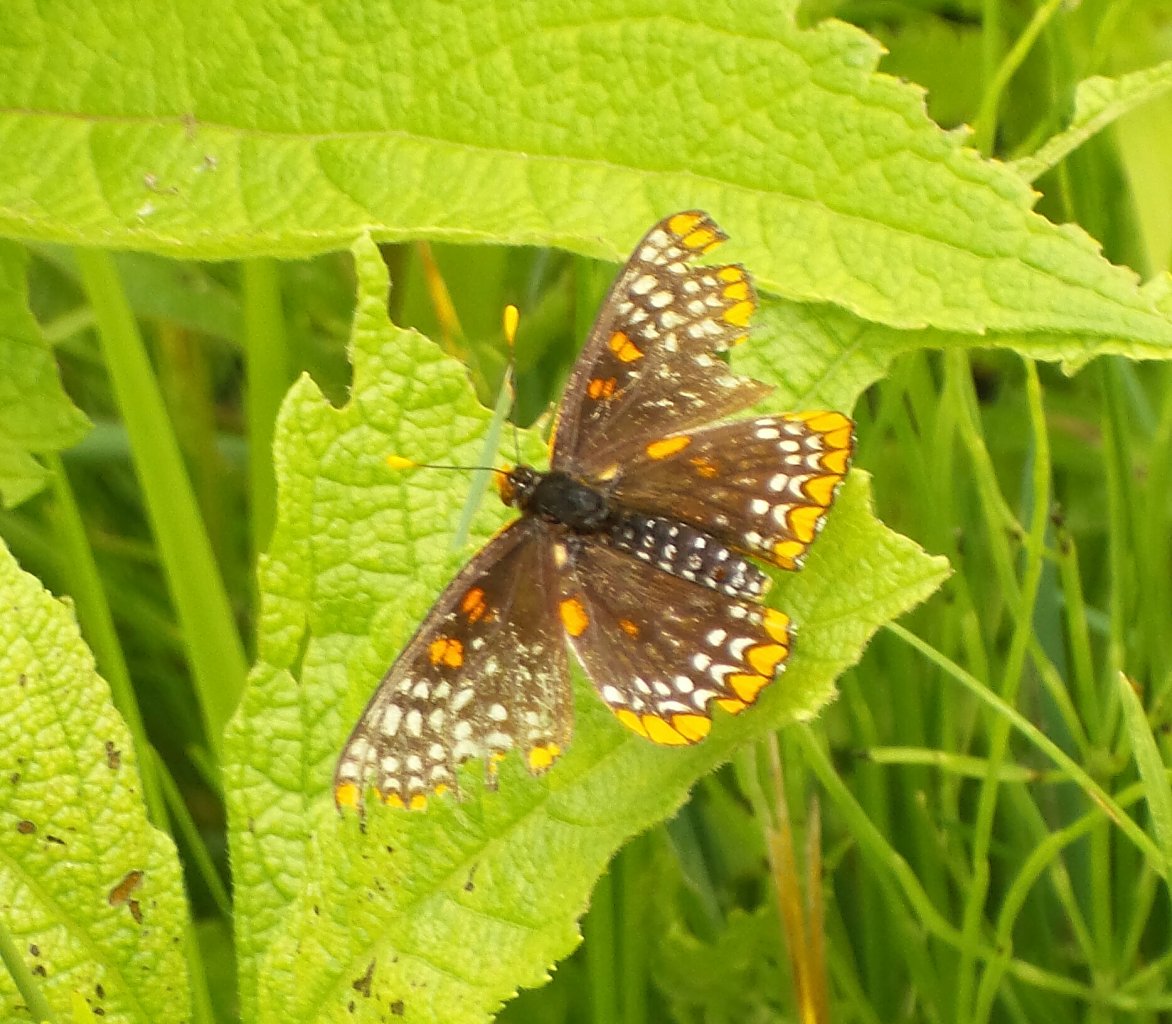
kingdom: Animalia
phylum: Arthropoda
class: Insecta
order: Lepidoptera
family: Nymphalidae
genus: Euphydryas
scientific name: Euphydryas phaeton
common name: Baltimore Checkerspot
